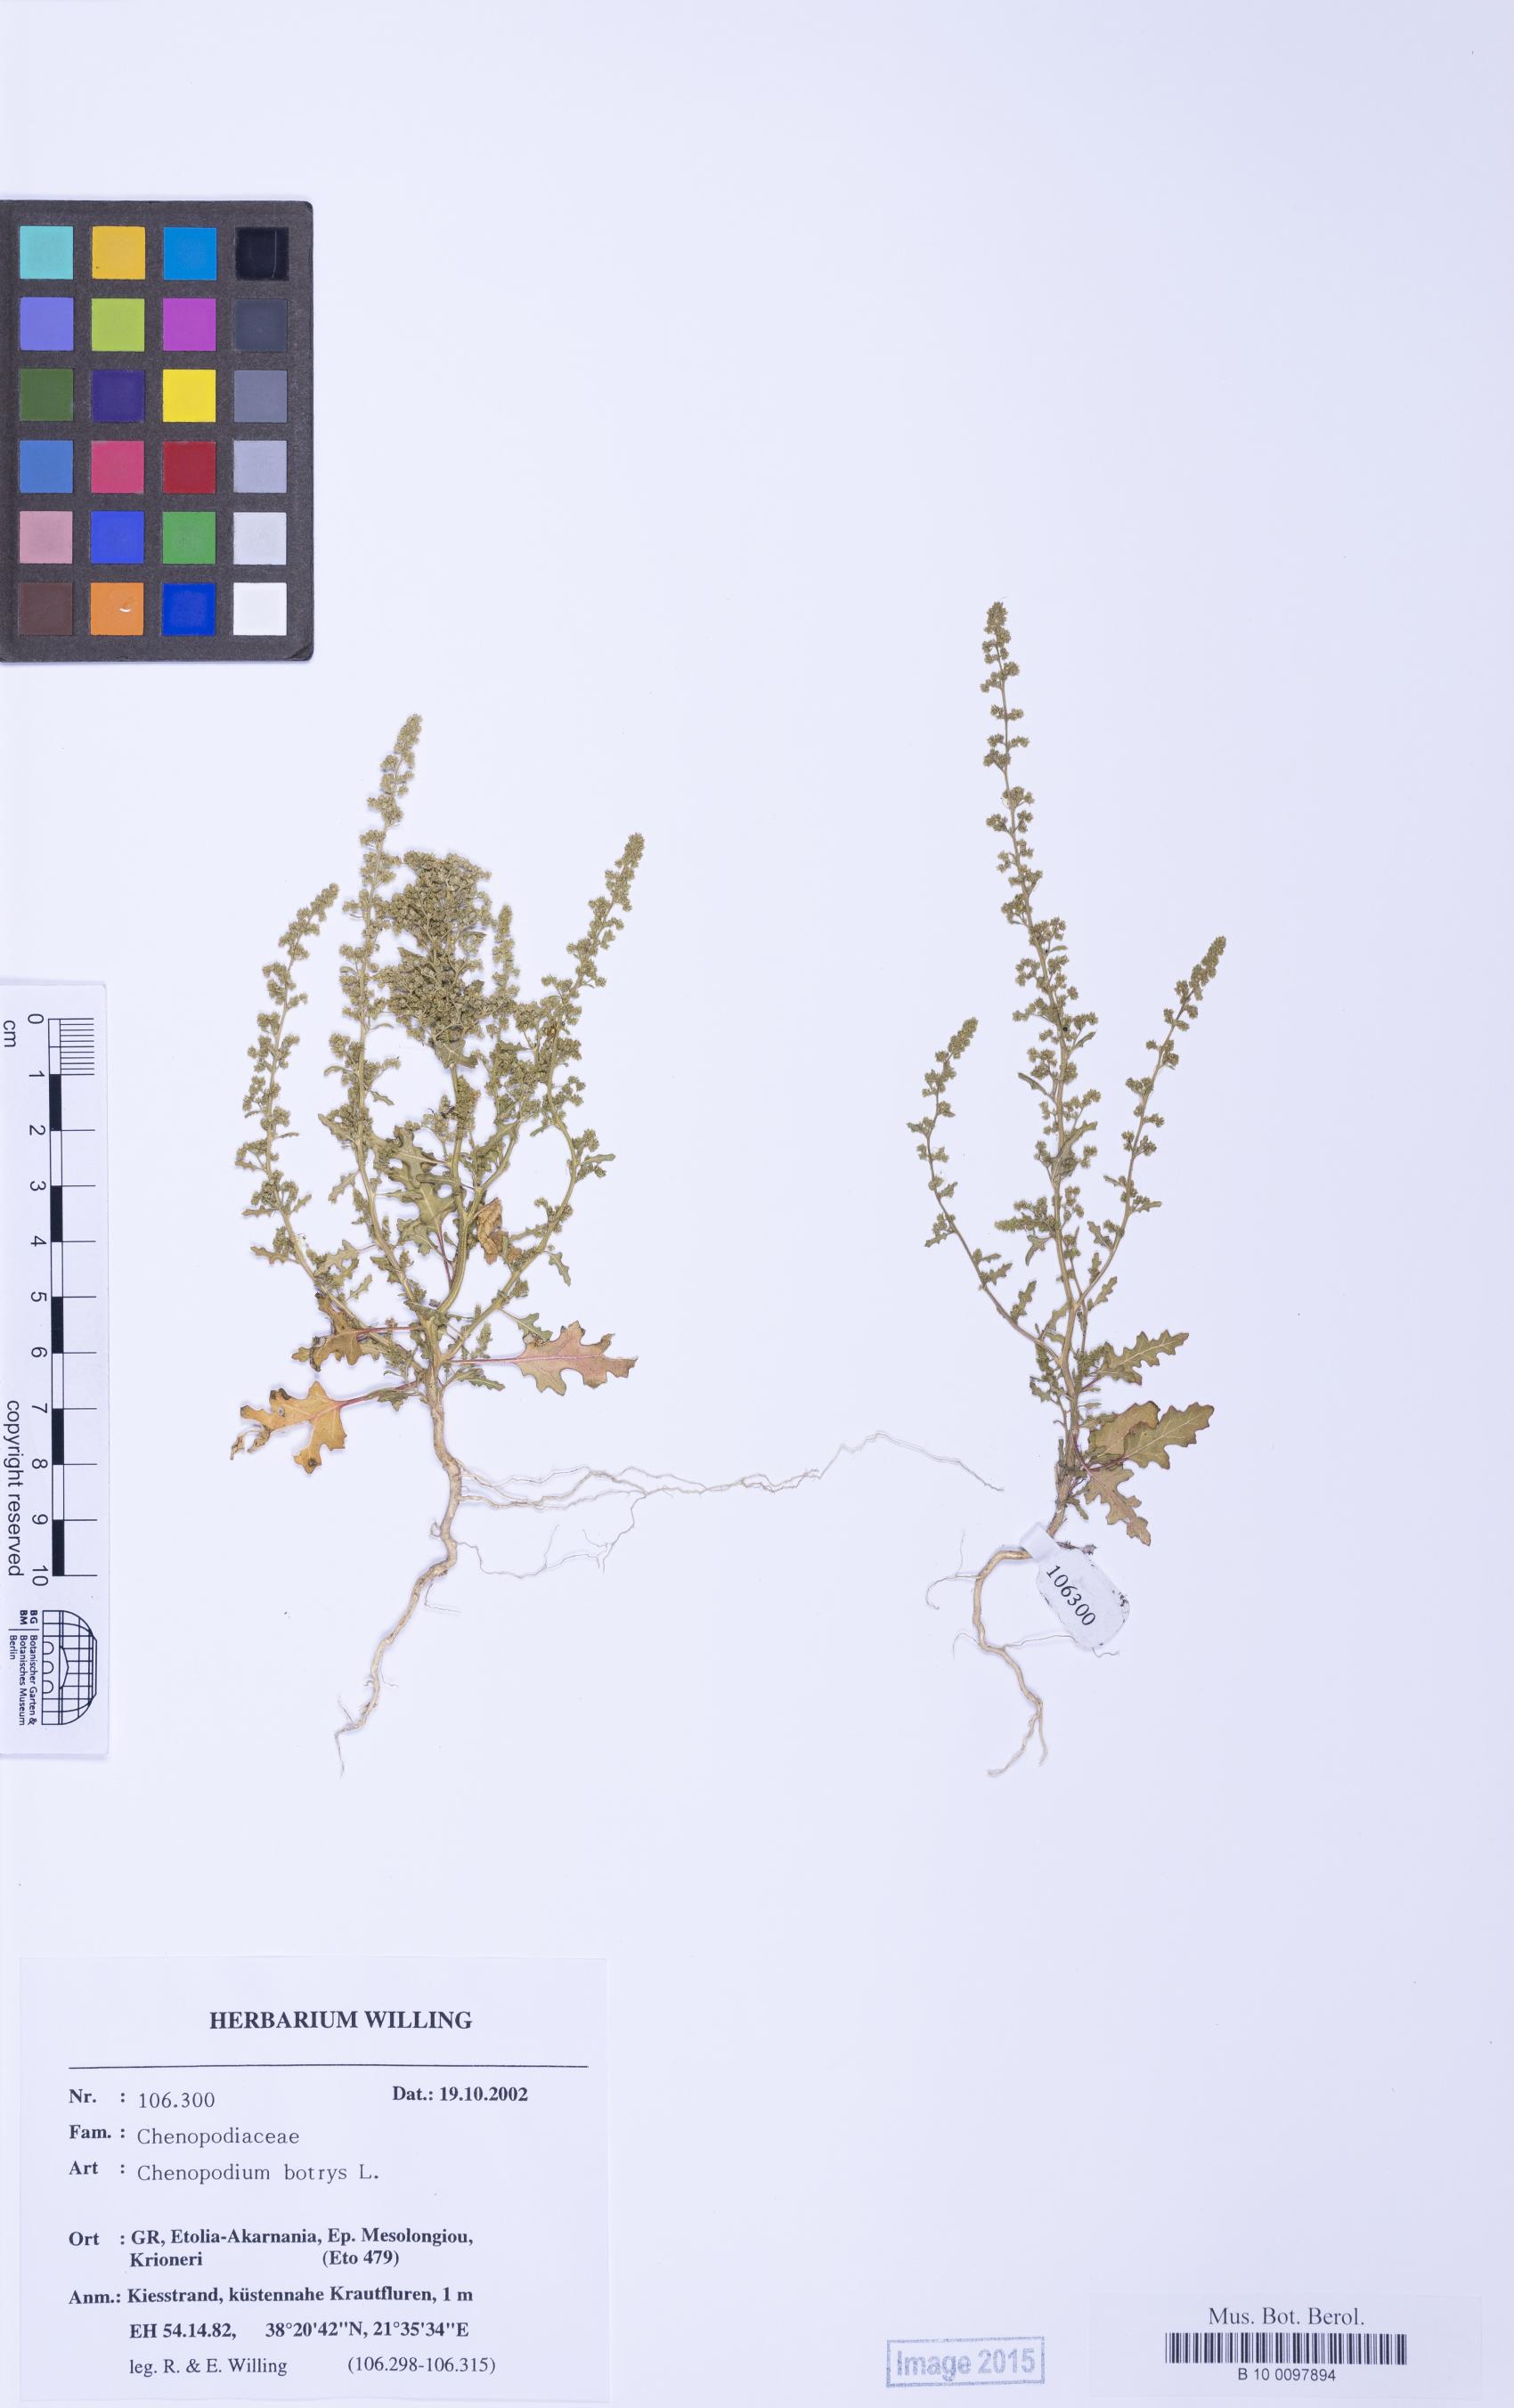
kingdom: Plantae
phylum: Tracheophyta
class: Magnoliopsida
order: Caryophyllales
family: Amaranthaceae
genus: Dysphania
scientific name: Dysphania botrys
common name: Feather-geranium
